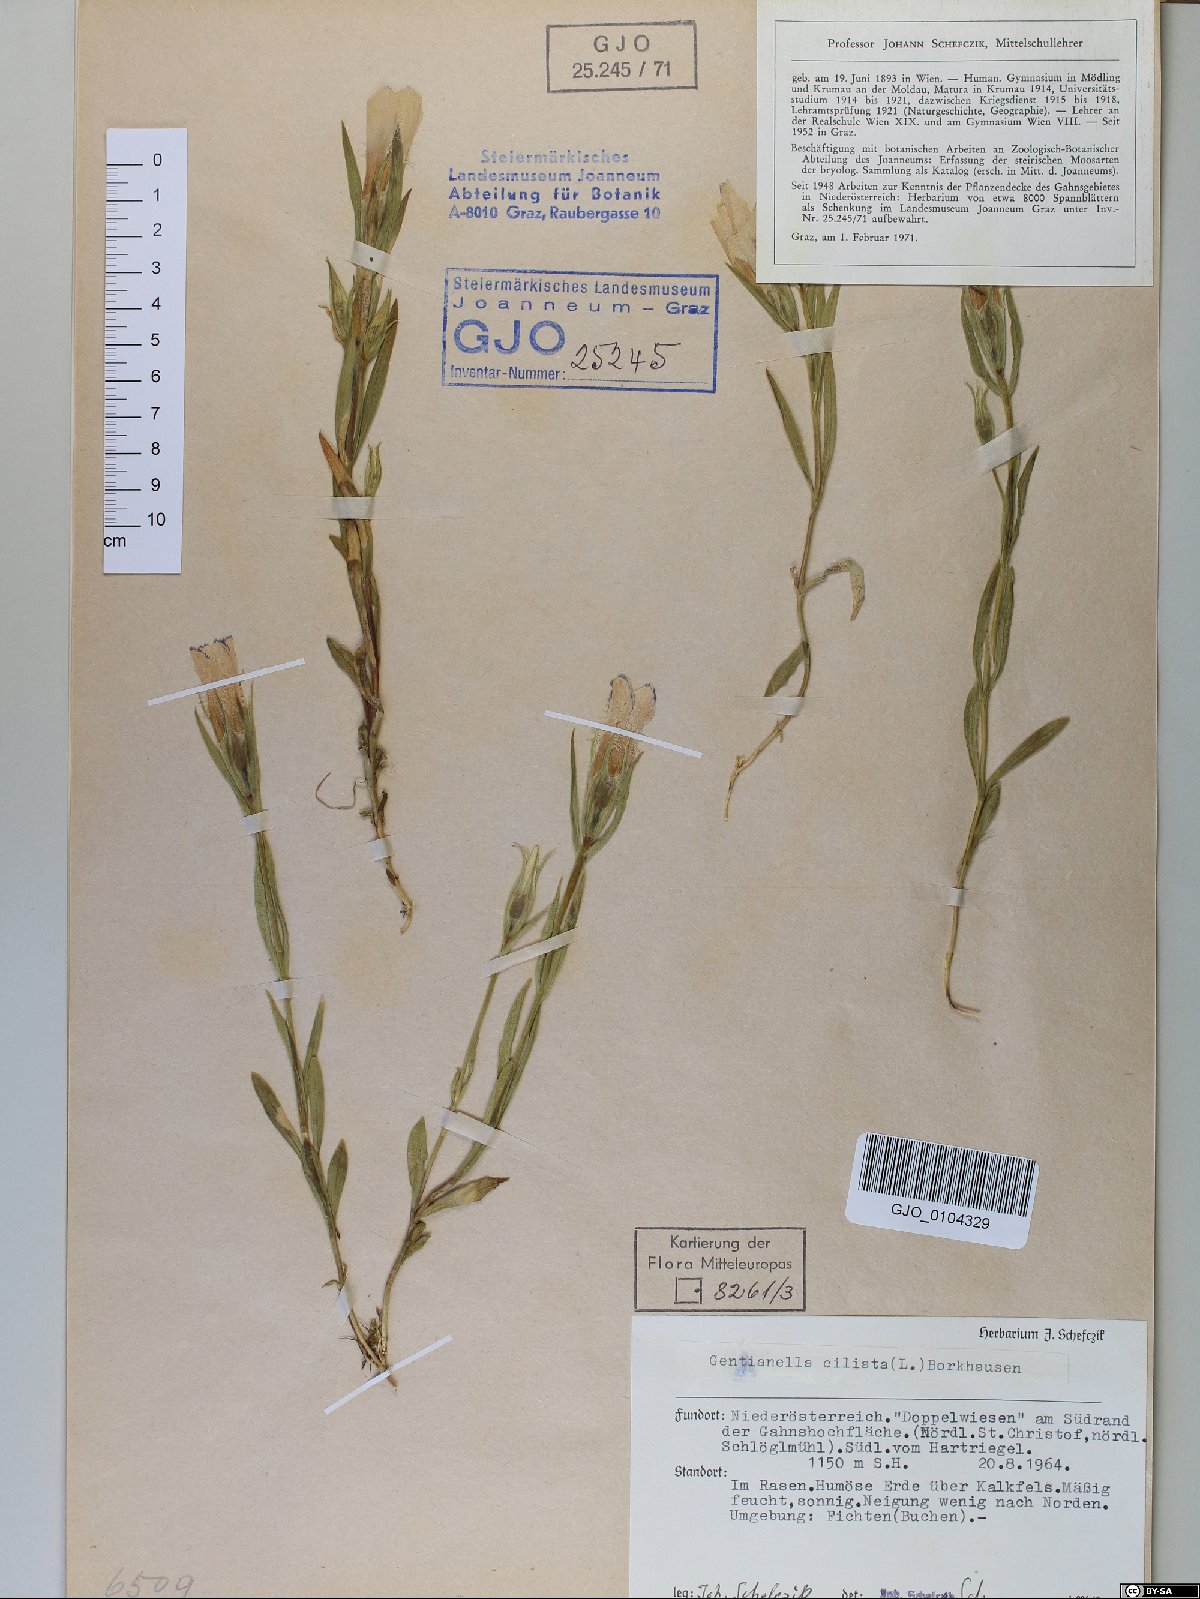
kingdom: Plantae
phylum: Tracheophyta
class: Magnoliopsida
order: Gentianales
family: Gentianaceae
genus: Gentianopsis
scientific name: Gentianopsis ciliata
